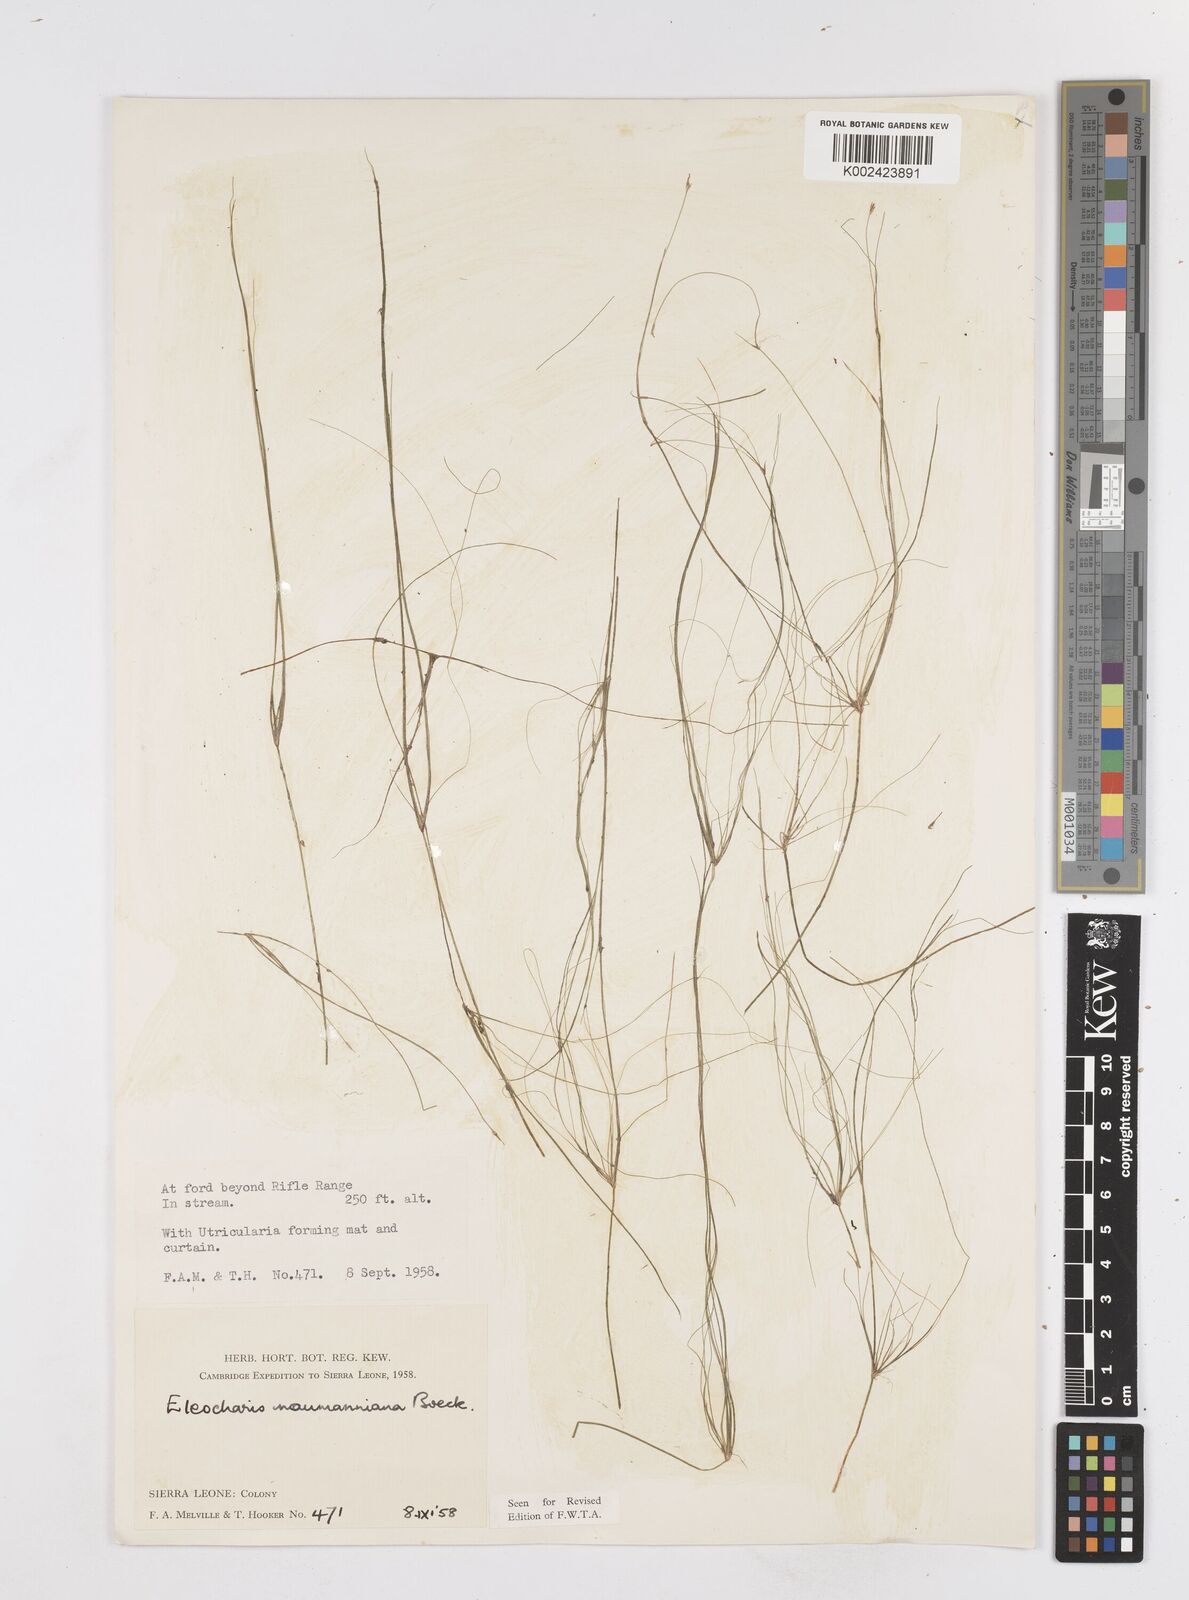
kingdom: Plantae
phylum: Tracheophyta
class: Liliopsida
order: Poales
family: Cyperaceae
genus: Eleocharis
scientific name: Eleocharis naumanniana
